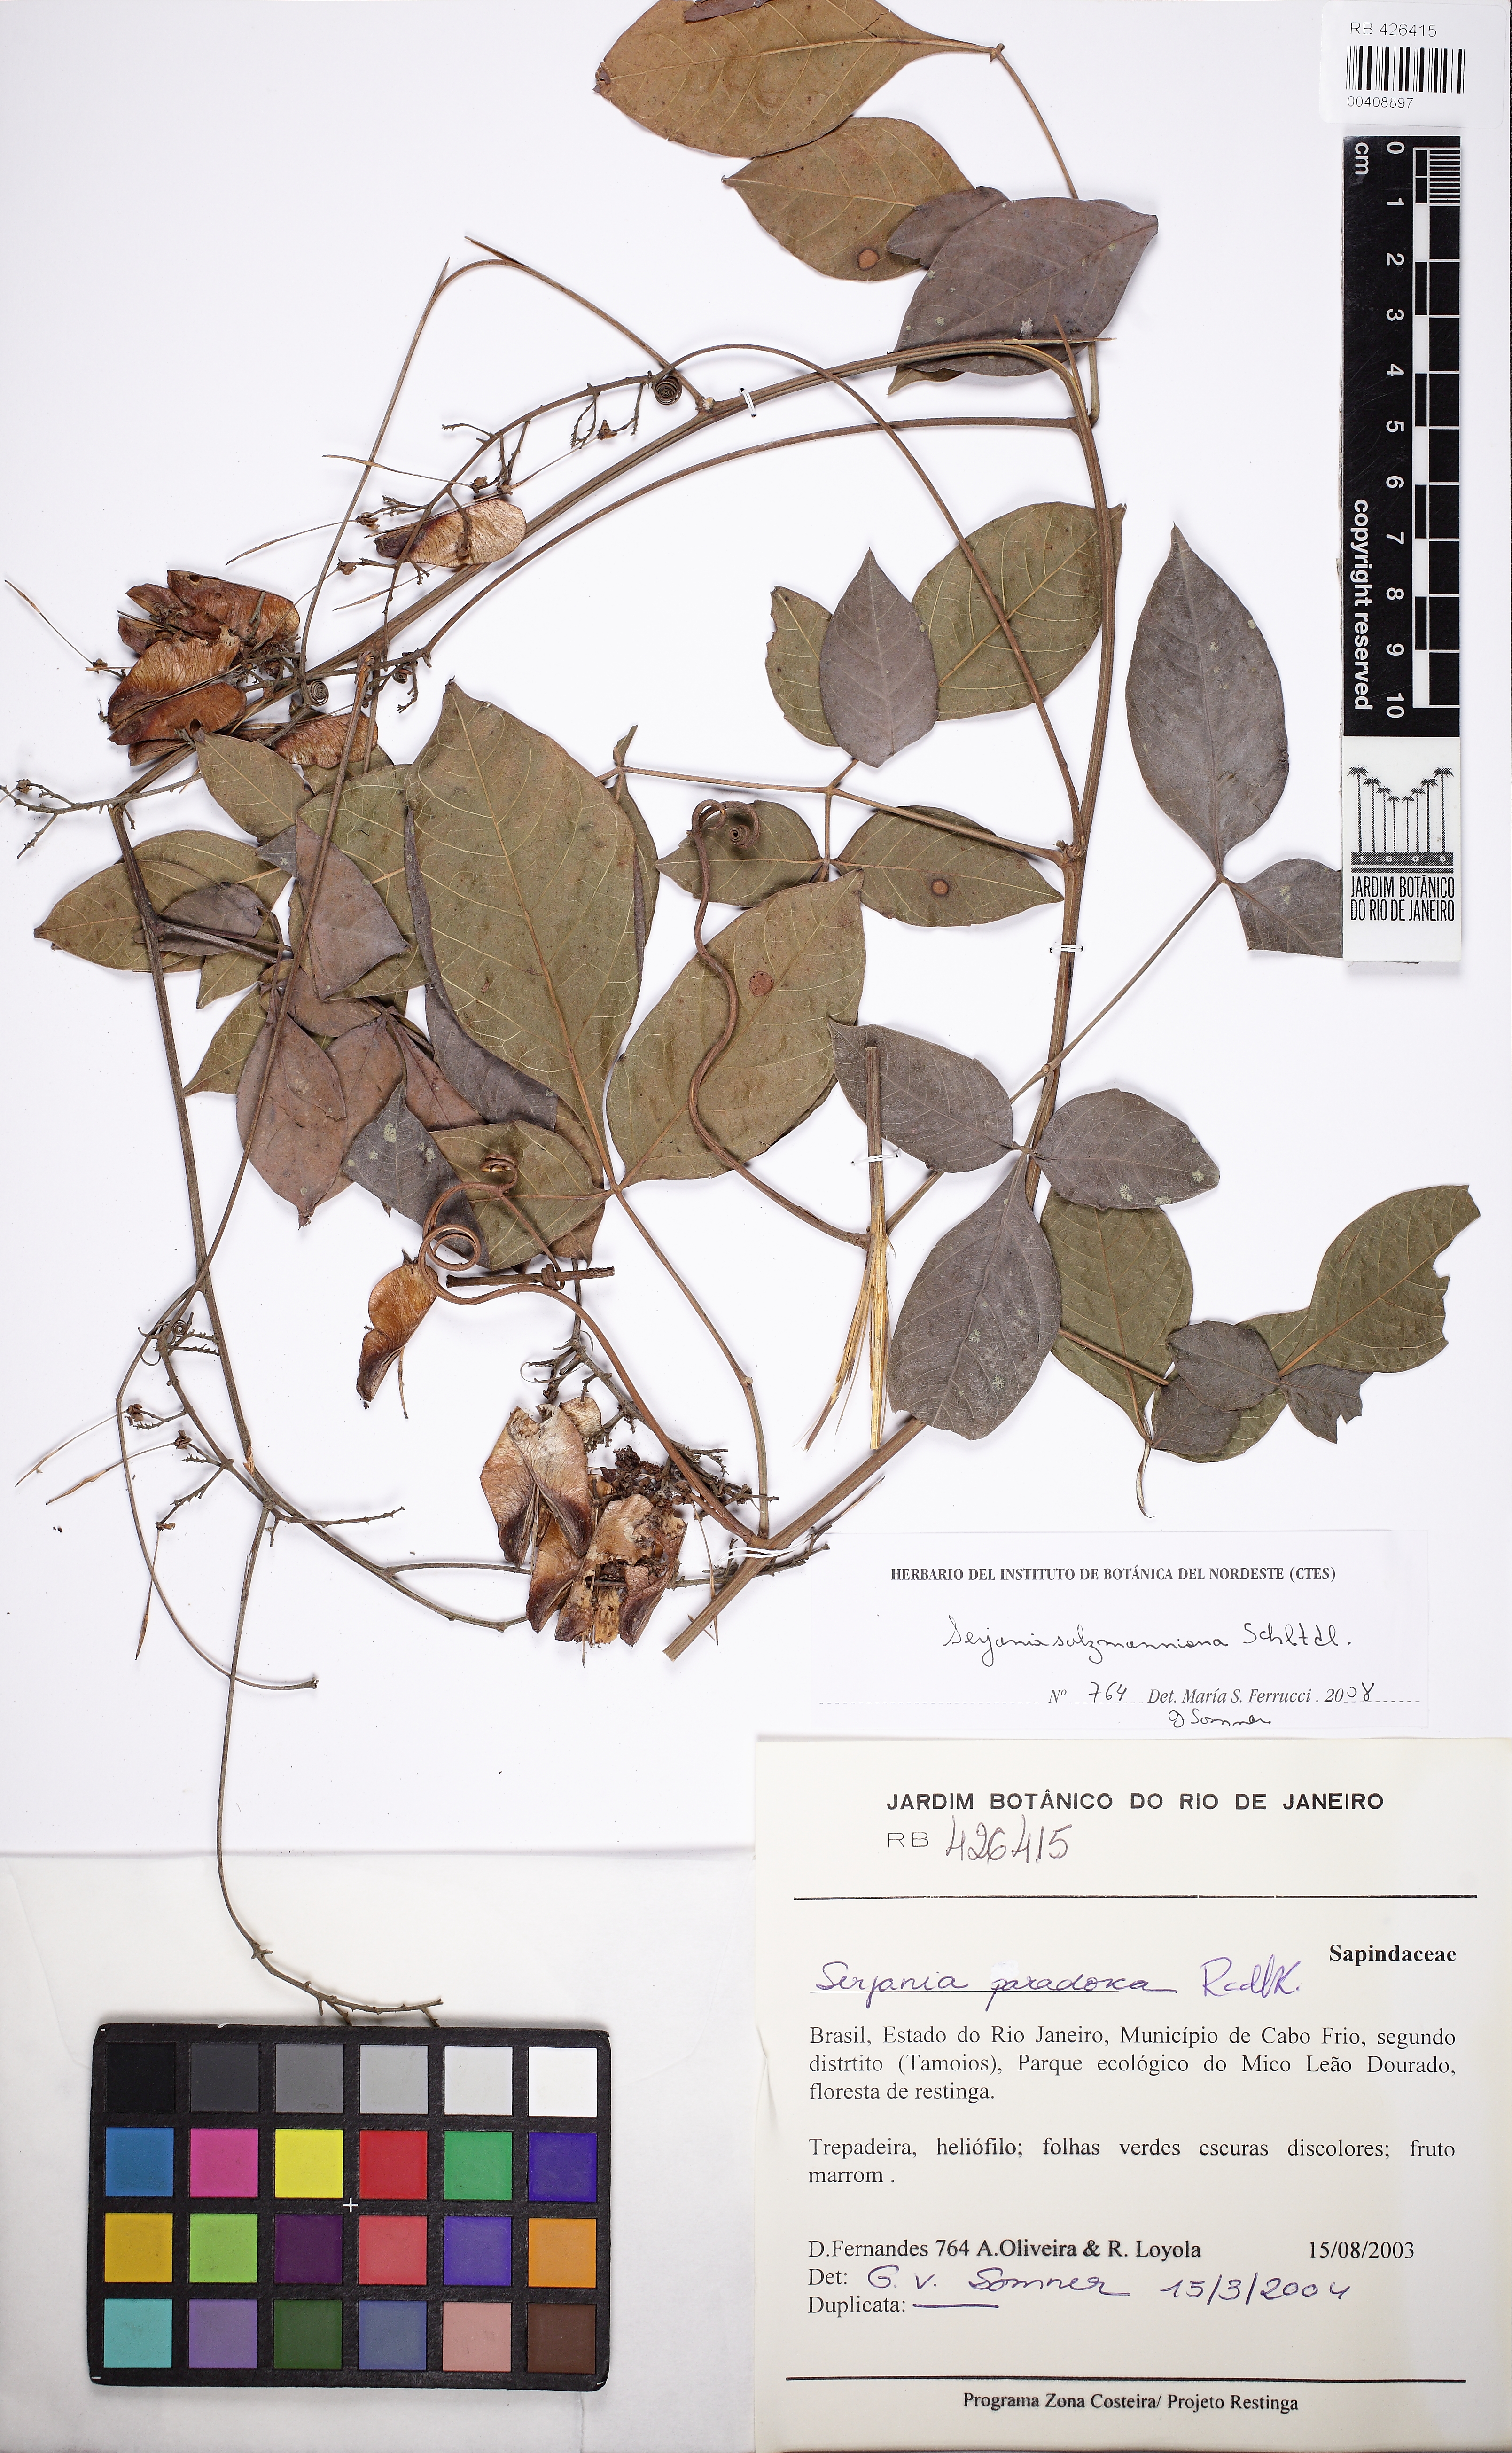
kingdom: Plantae
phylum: Tracheophyta
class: Magnoliopsida
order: Sapindales
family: Sapindaceae
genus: Serjania
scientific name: Serjania salzmanniana
